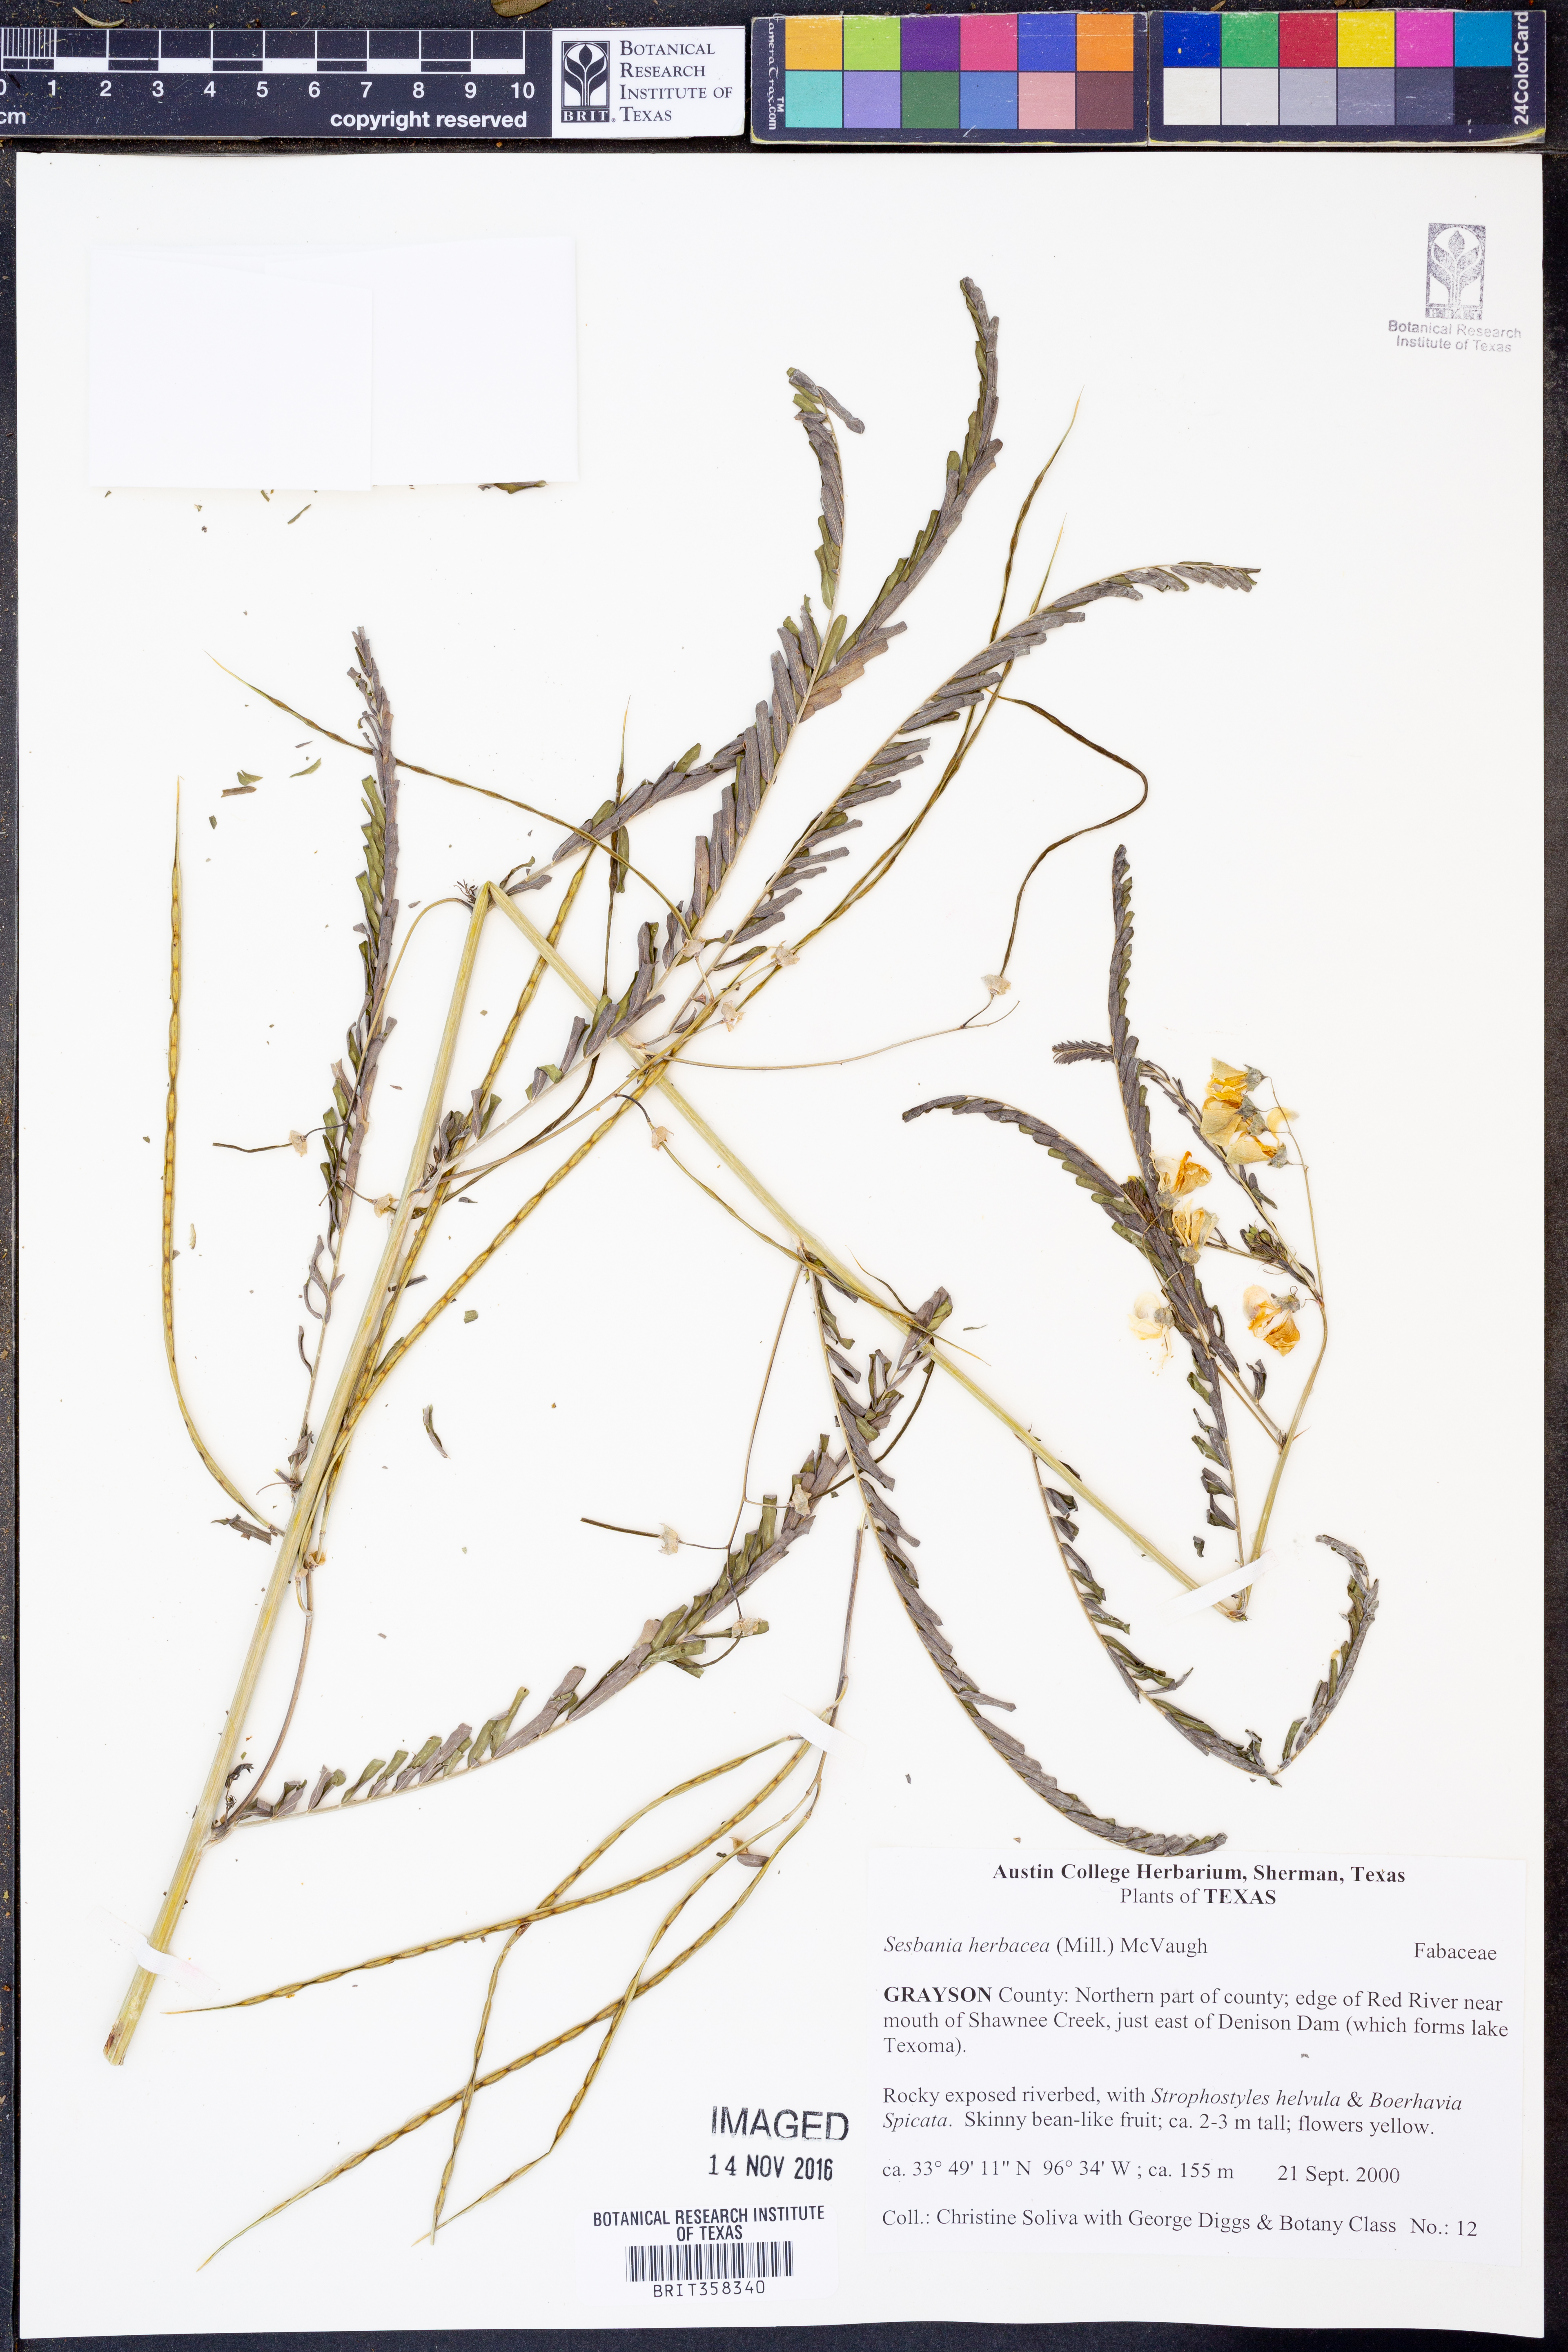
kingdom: Plantae
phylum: Tracheophyta
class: Magnoliopsida
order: Fabales
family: Fabaceae
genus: Sesbania
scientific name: Sesbania herbacea
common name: Bigpod sesbania
